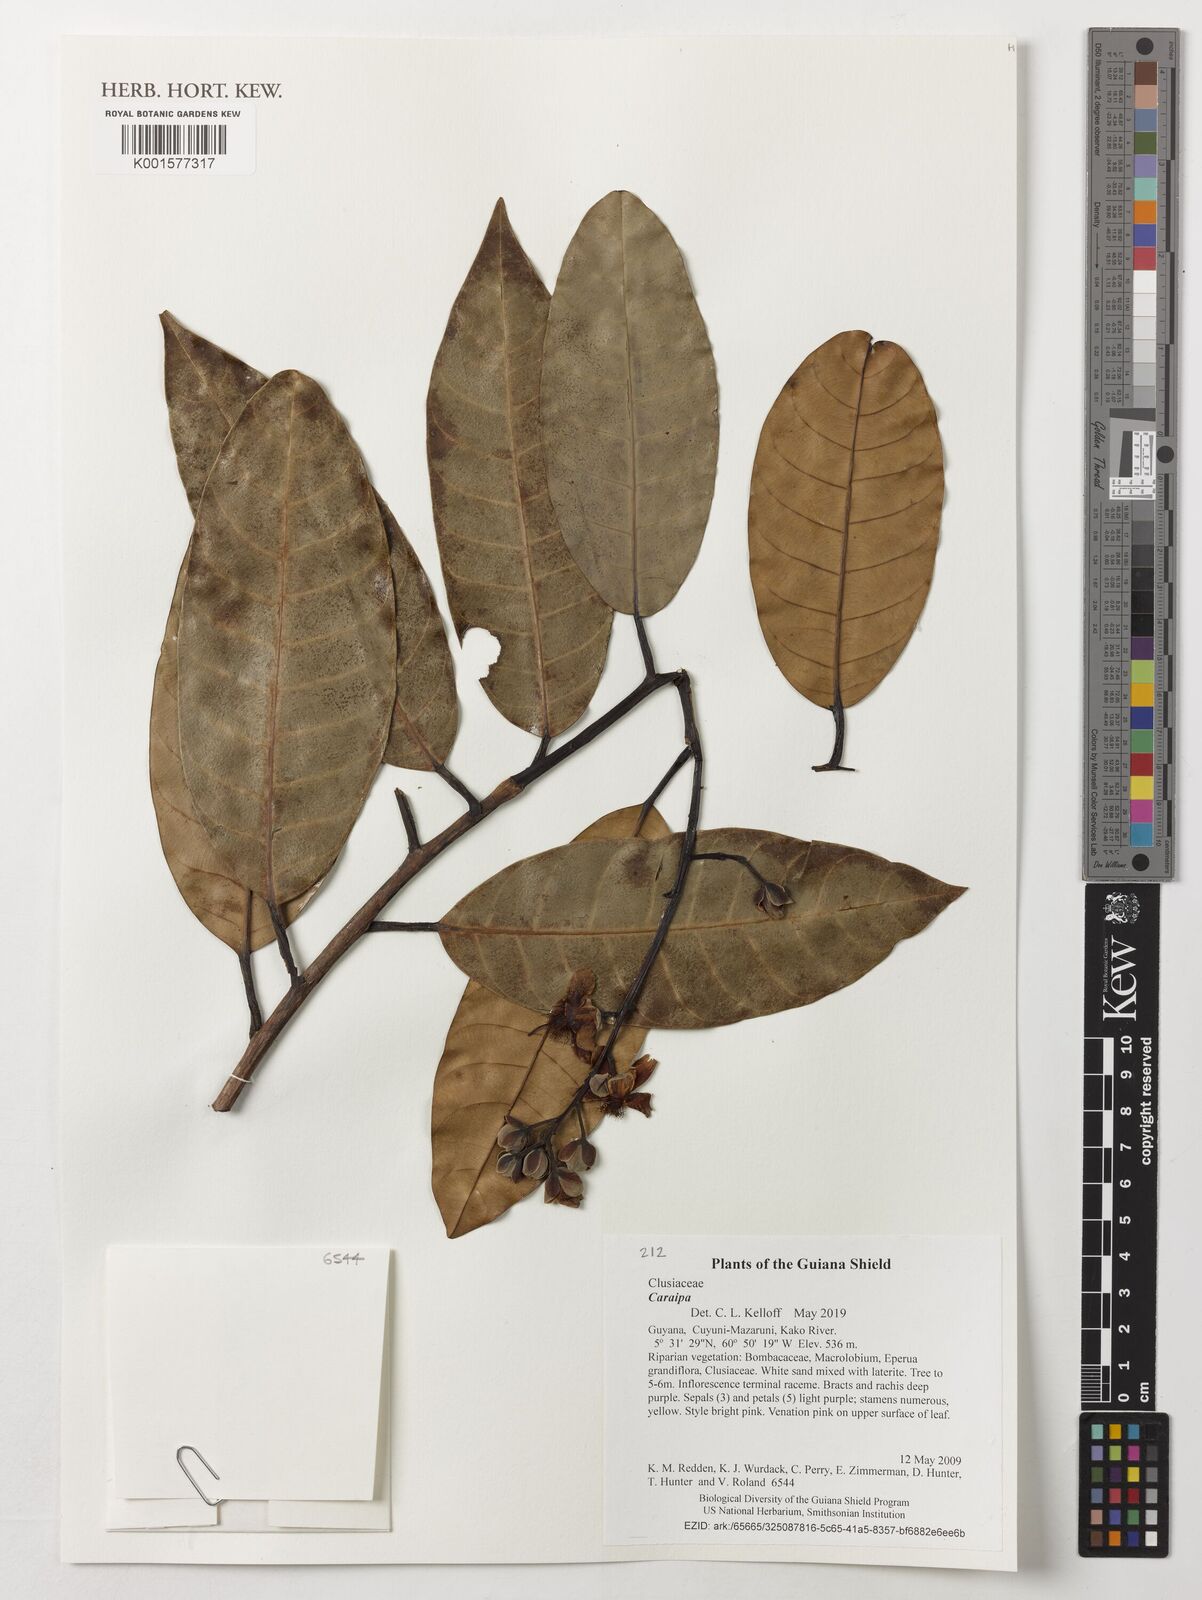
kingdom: Plantae
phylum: Tracheophyta
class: Magnoliopsida
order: Malpighiales
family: Calophyllaceae
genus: Caraipa
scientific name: Caraipa
